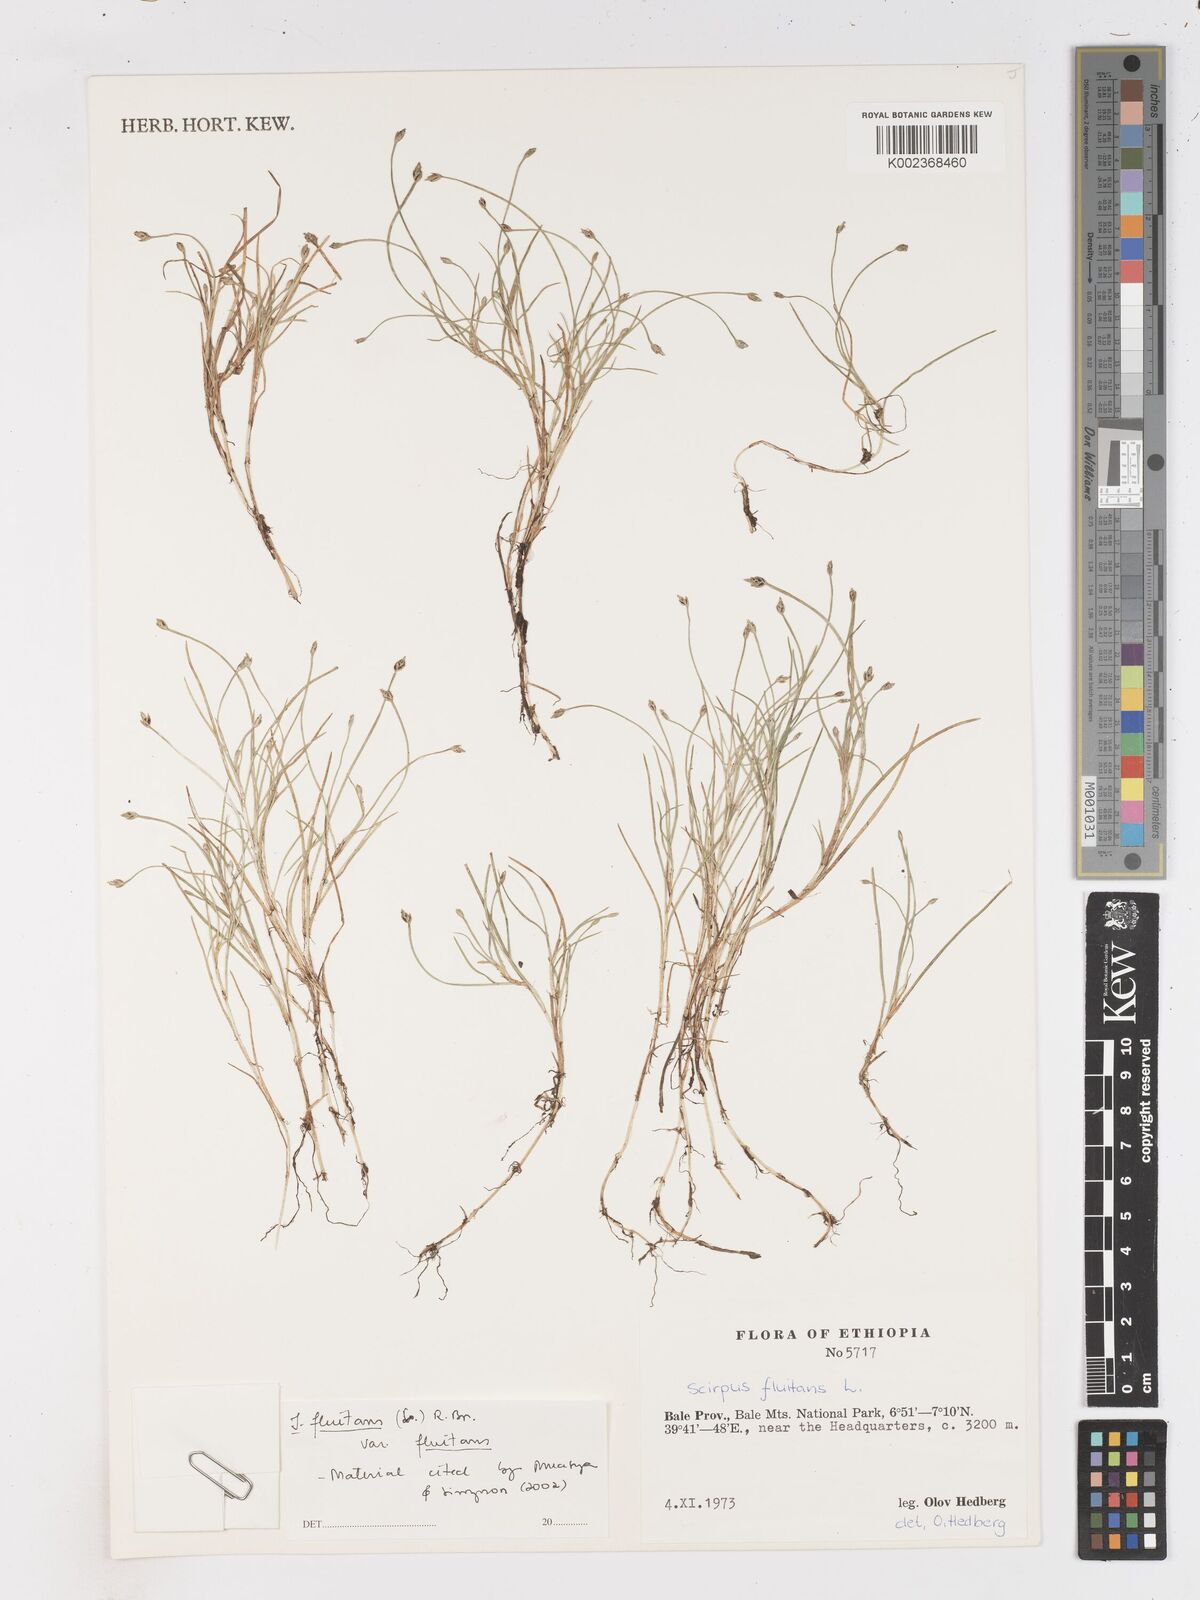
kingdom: Plantae
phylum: Tracheophyta
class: Liliopsida
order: Poales
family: Cyperaceae
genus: Isolepis
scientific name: Isolepis fluitans
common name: Floating club-rush
